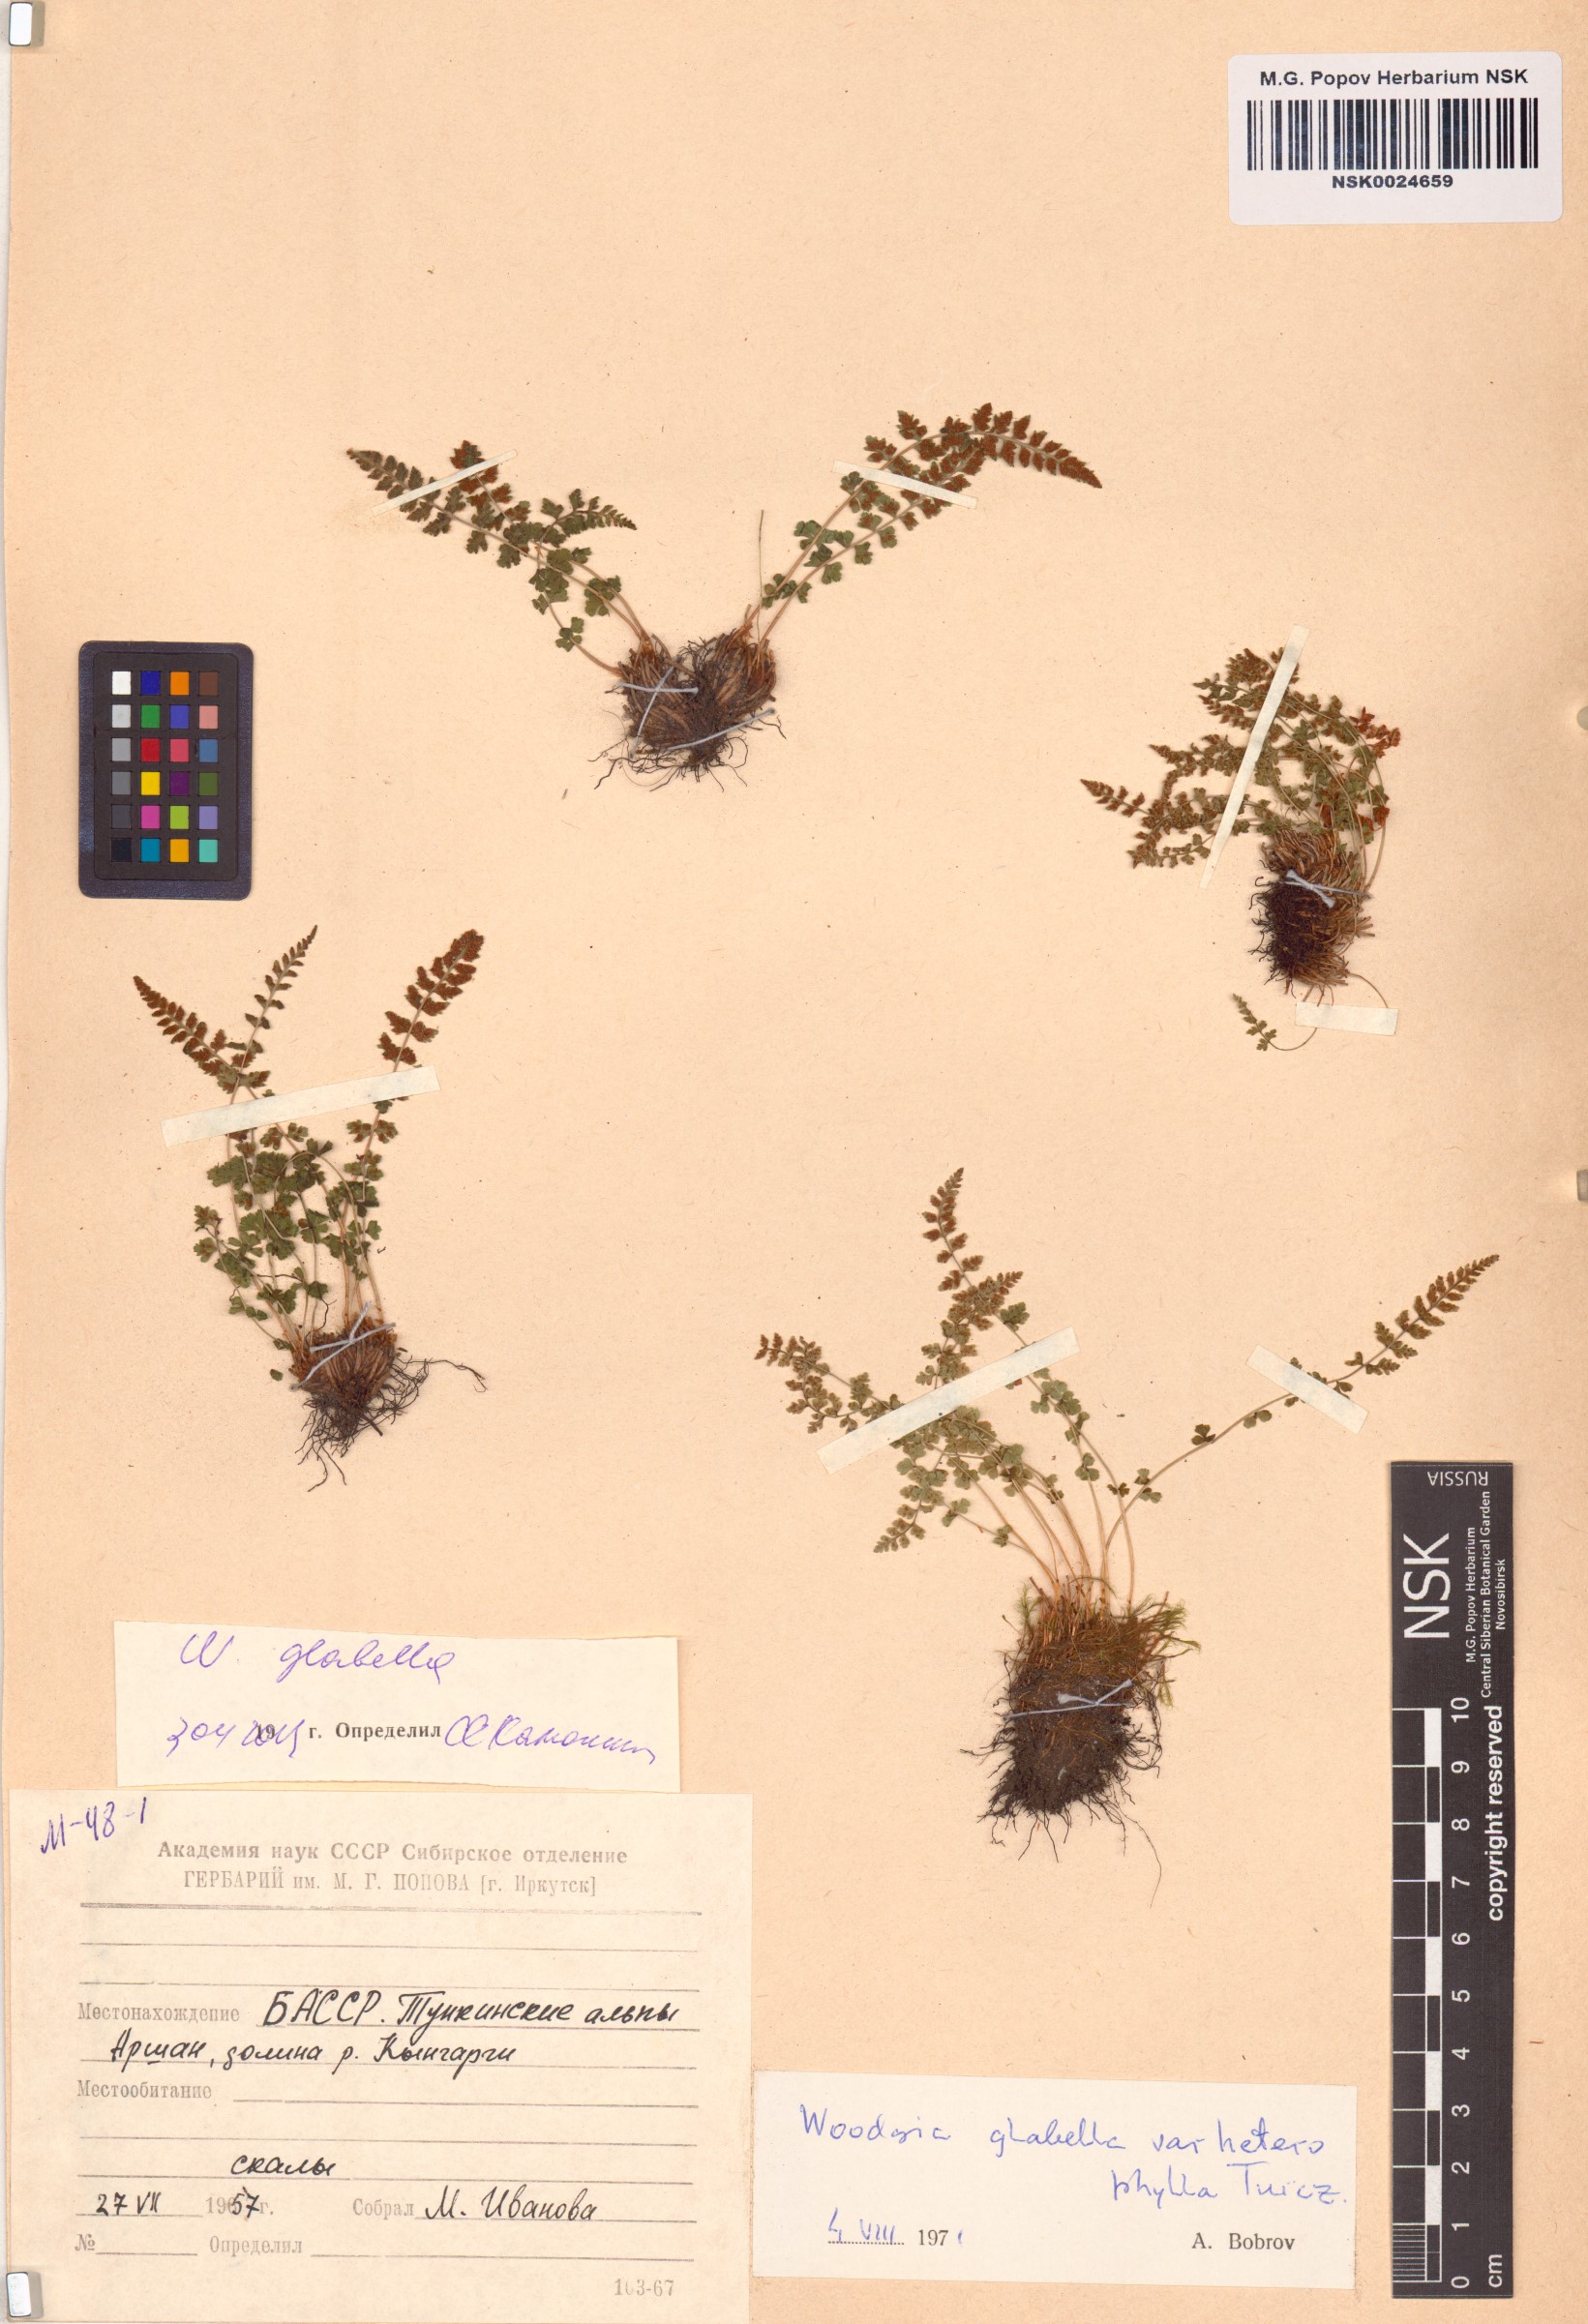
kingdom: Plantae
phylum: Tracheophyta
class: Polypodiopsida
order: Polypodiales
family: Woodsiaceae
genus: Woodsia
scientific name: Woodsia glabella
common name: Smooth woodsia
